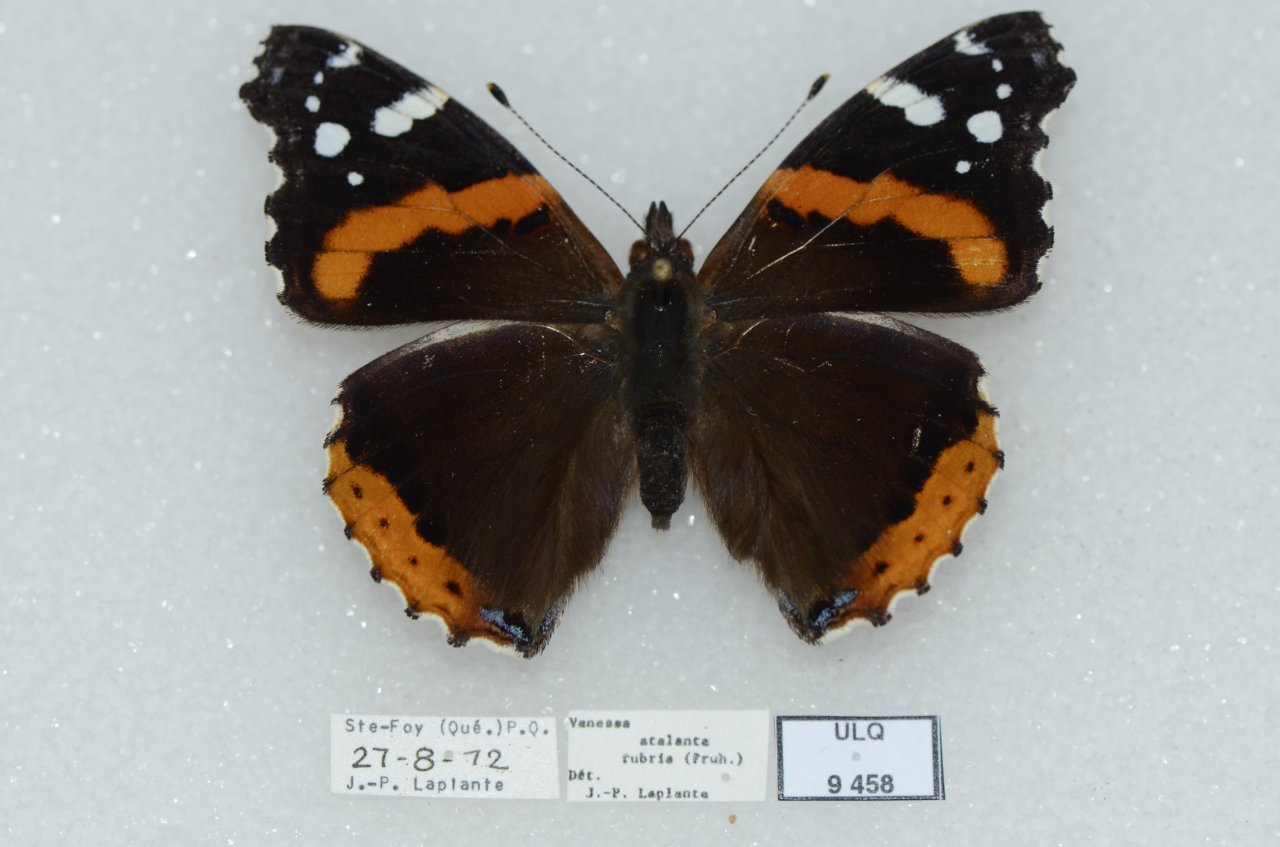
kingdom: Animalia
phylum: Arthropoda
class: Insecta
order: Lepidoptera
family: Nymphalidae
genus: Vanessa
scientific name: Vanessa atalanta
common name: Red Admiral
